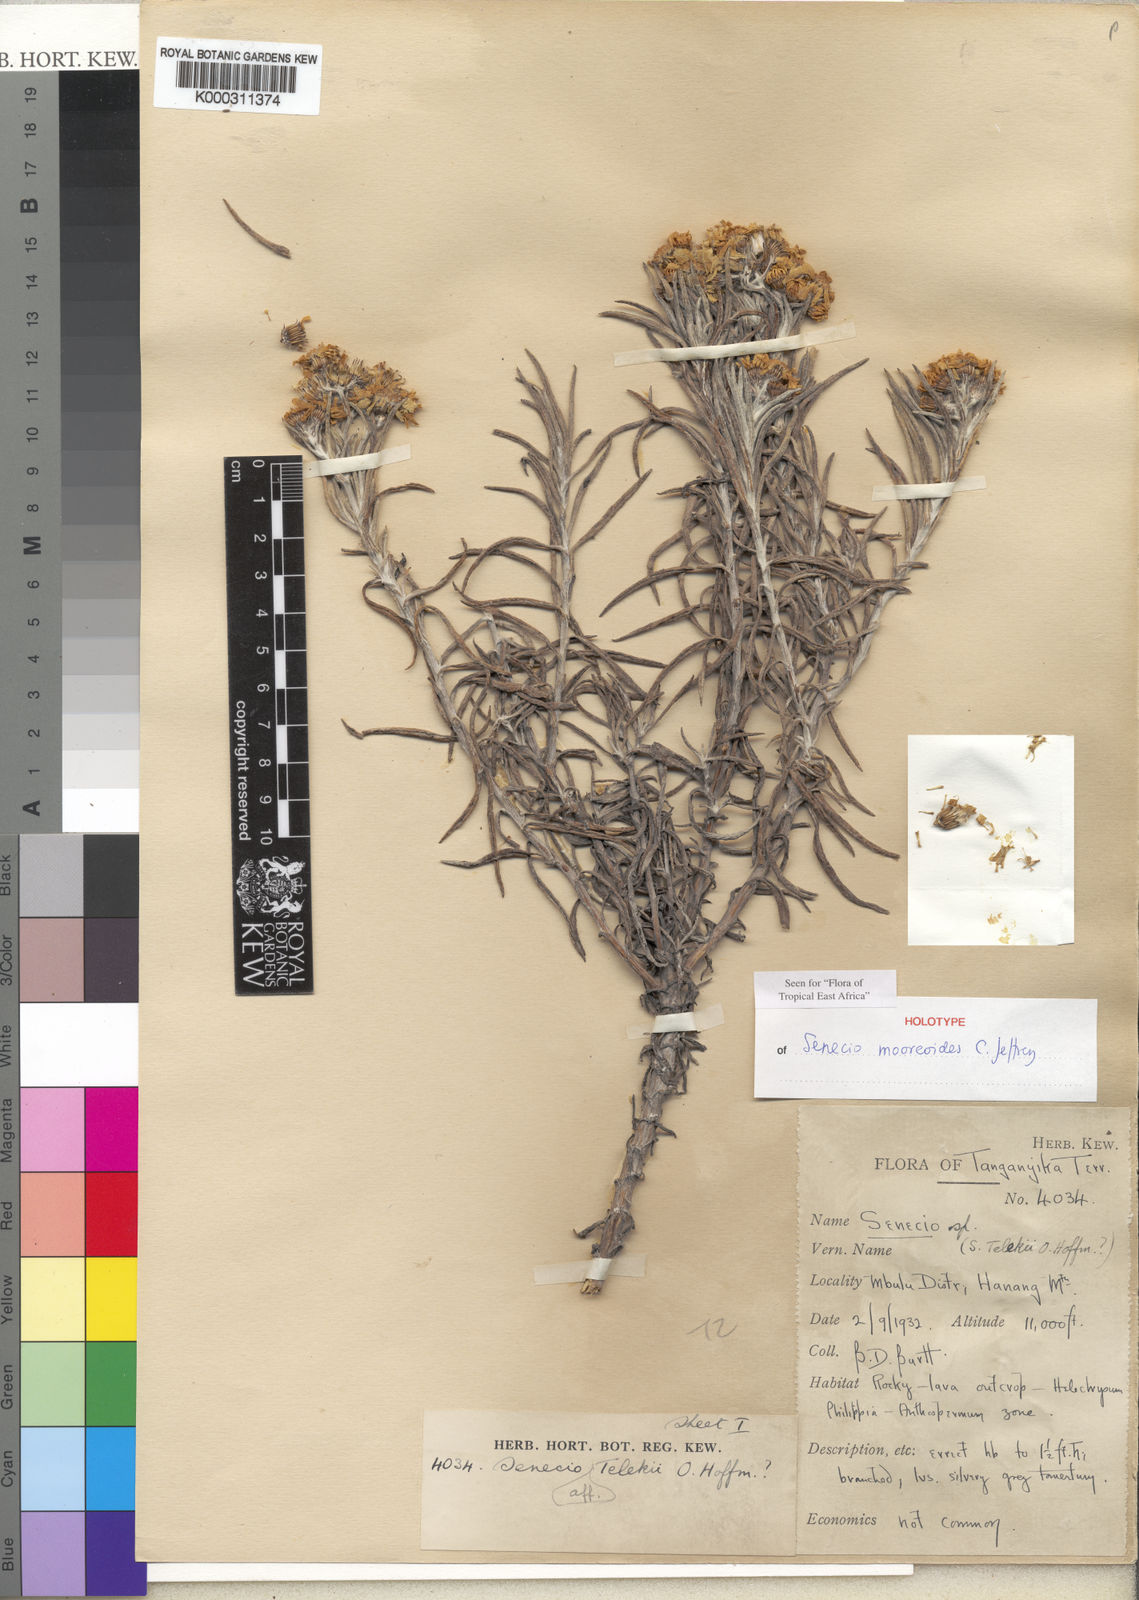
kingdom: Plantae
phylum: Tracheophyta
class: Magnoliopsida
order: Asterales
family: Asteraceae
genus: Senecio
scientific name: Senecio
